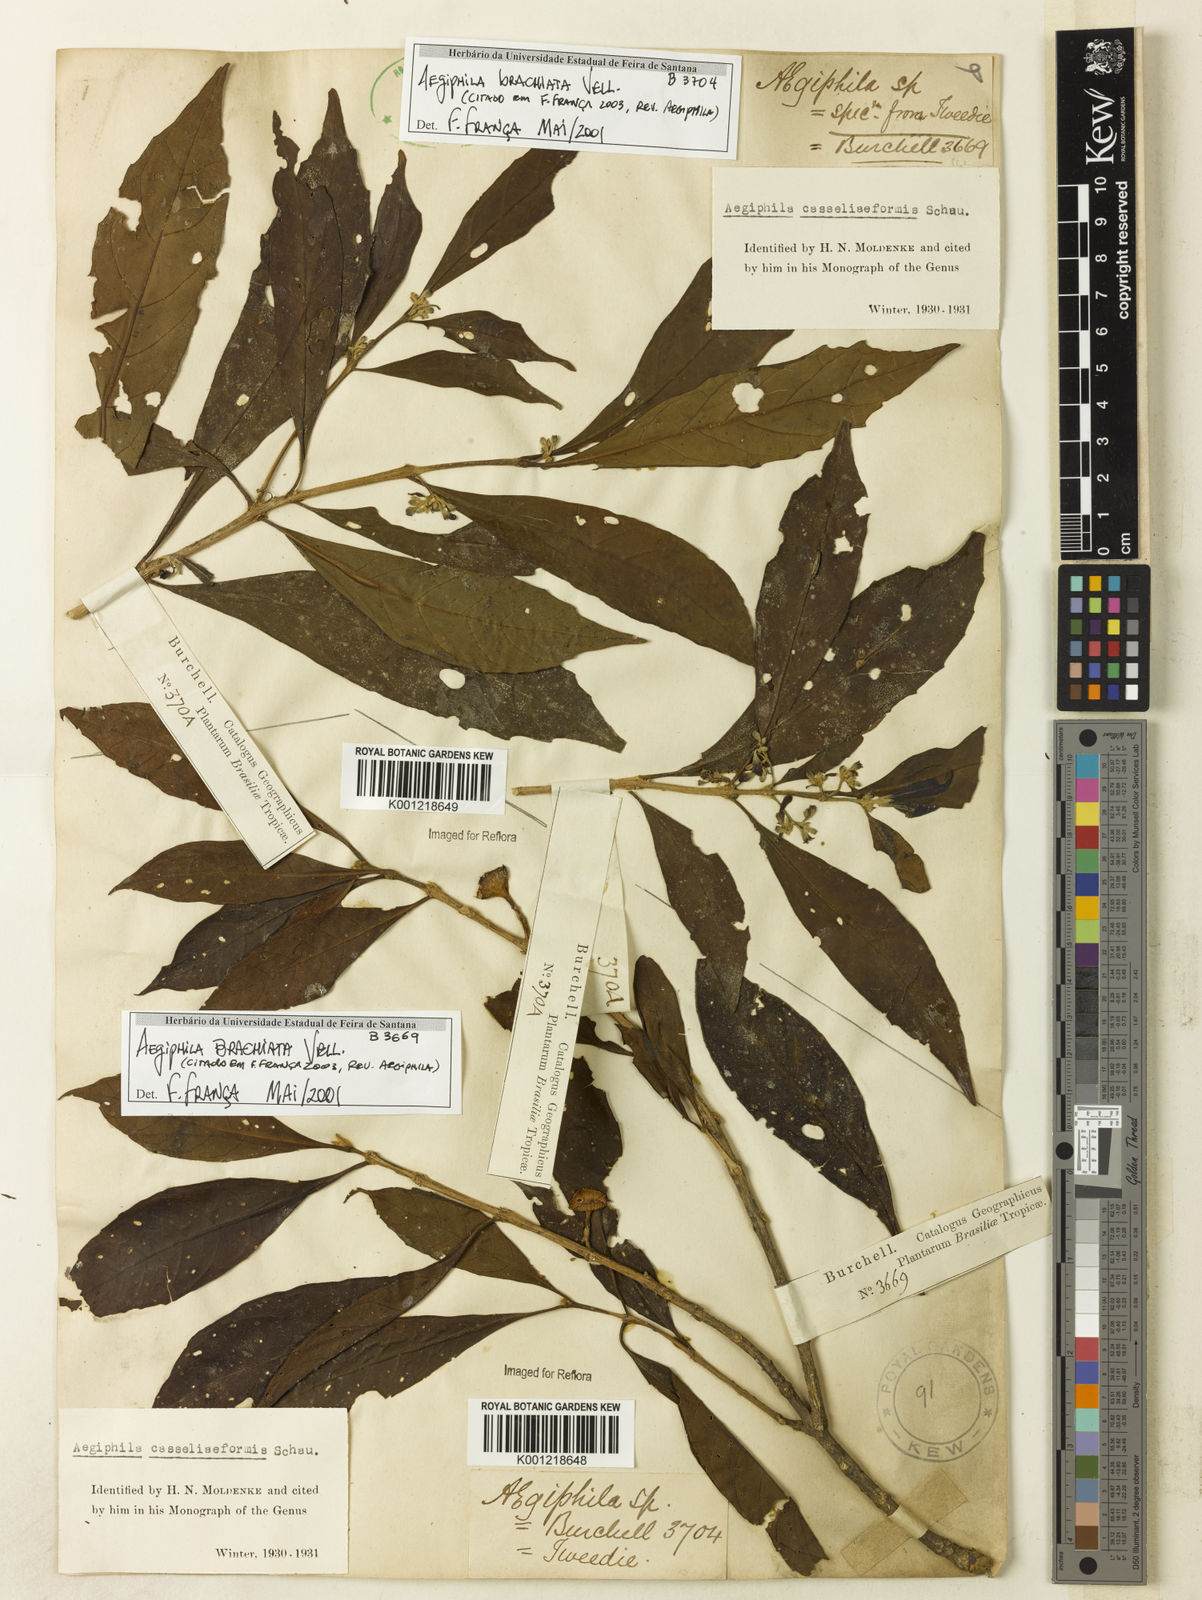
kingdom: Plantae
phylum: Tracheophyta
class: Magnoliopsida
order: Lamiales
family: Lamiaceae
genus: Aegiphila
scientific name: Aegiphila brachiata
